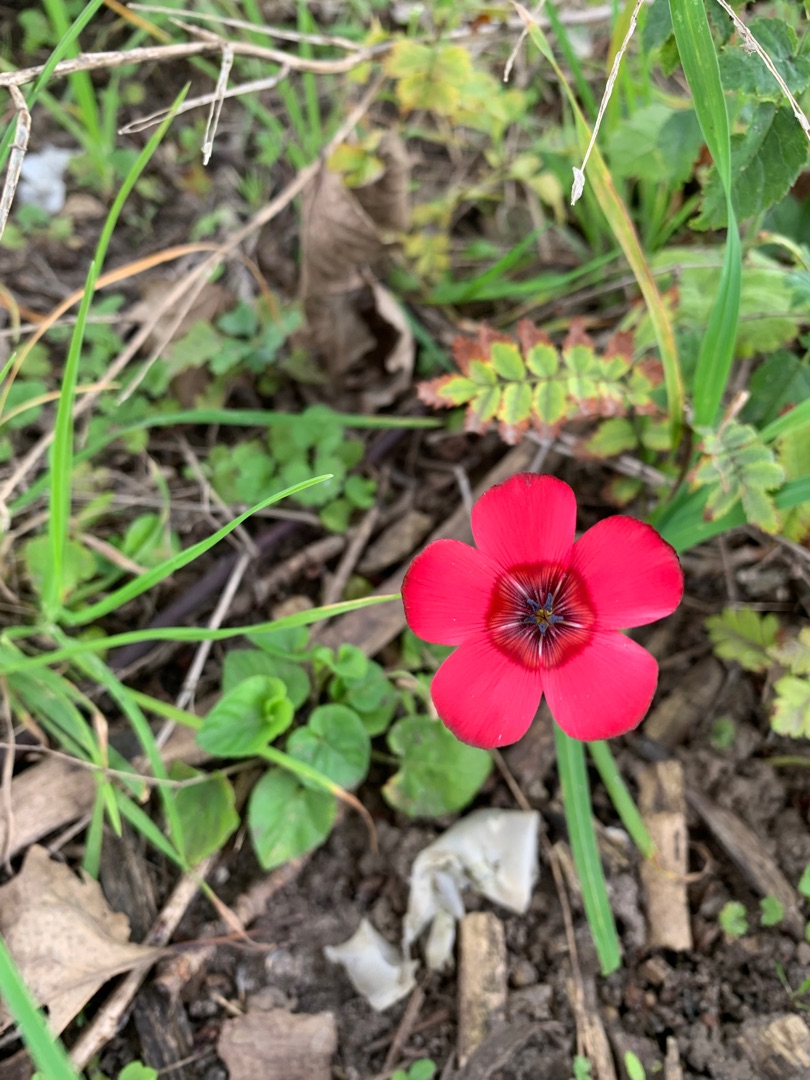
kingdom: Plantae
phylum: Tracheophyta
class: Magnoliopsida
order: Malpighiales
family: Linaceae
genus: Linum
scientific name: Linum grandiflorum
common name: Rød hør
